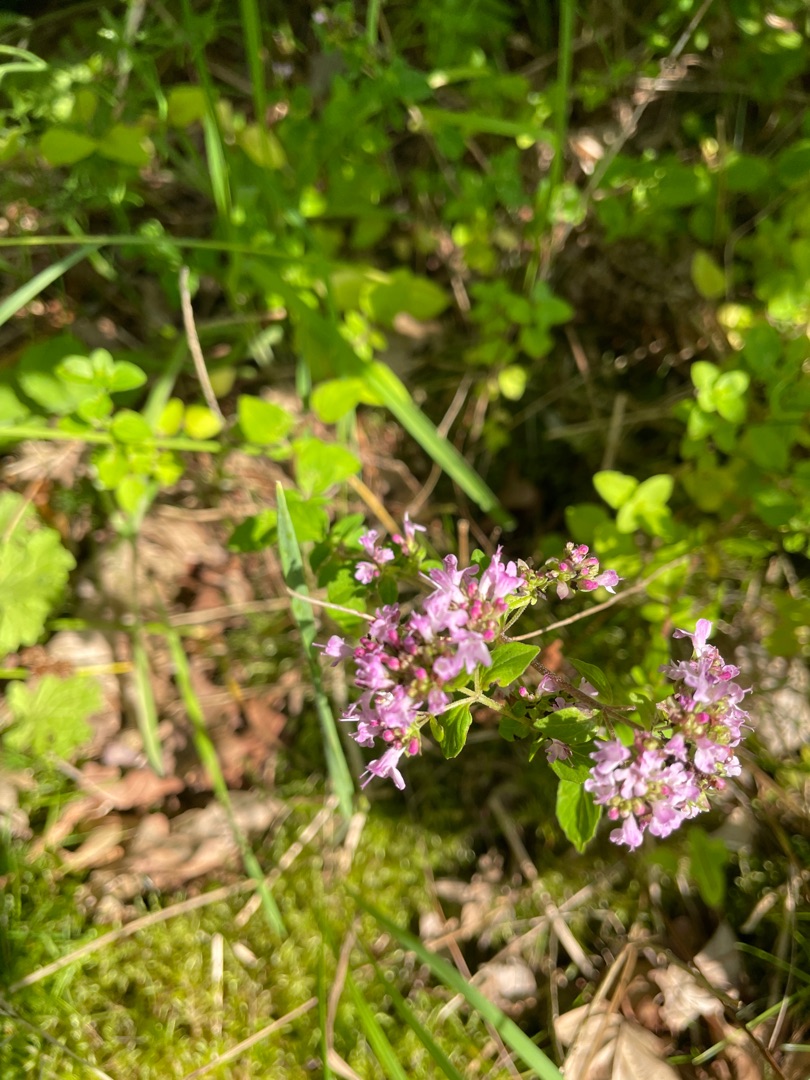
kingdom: Plantae
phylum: Tracheophyta
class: Magnoliopsida
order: Lamiales
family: Lamiaceae
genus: Origanum
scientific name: Origanum vulgare
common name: Merian
